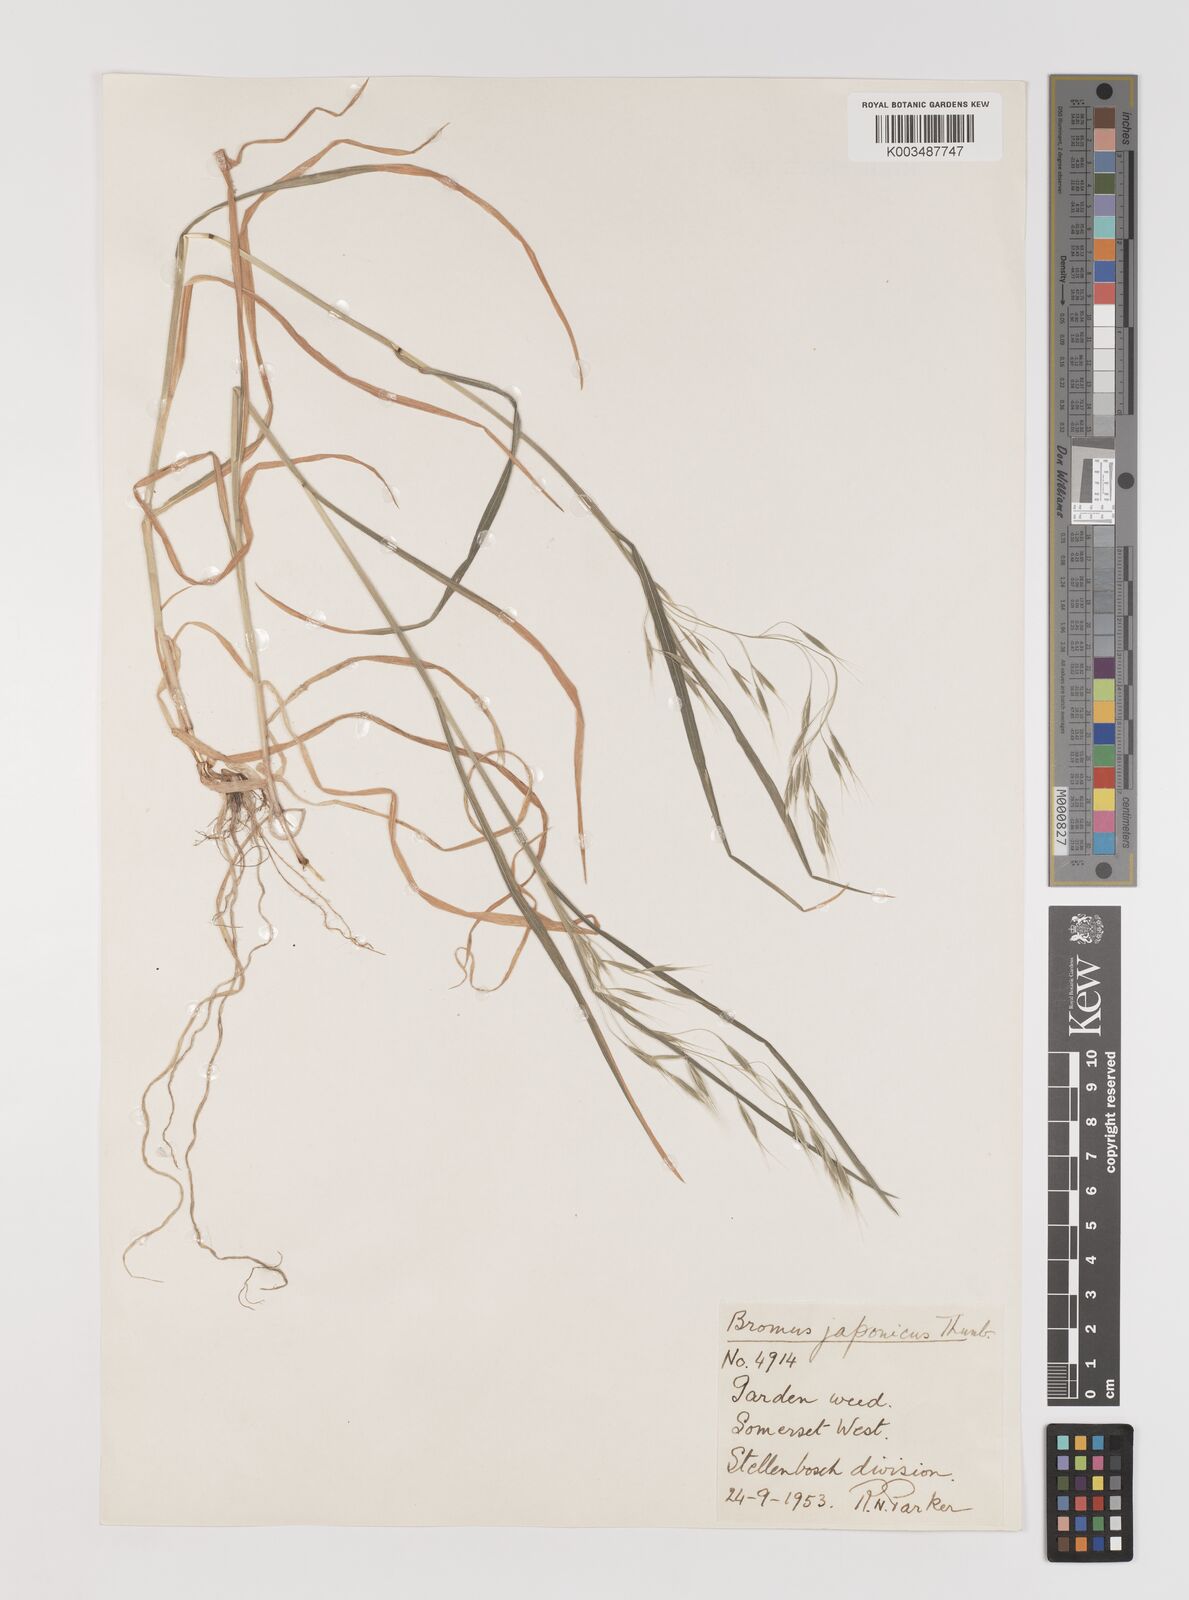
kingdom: Plantae
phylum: Tracheophyta
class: Liliopsida
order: Poales
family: Poaceae
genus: Bromus
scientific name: Bromus pectinatus
